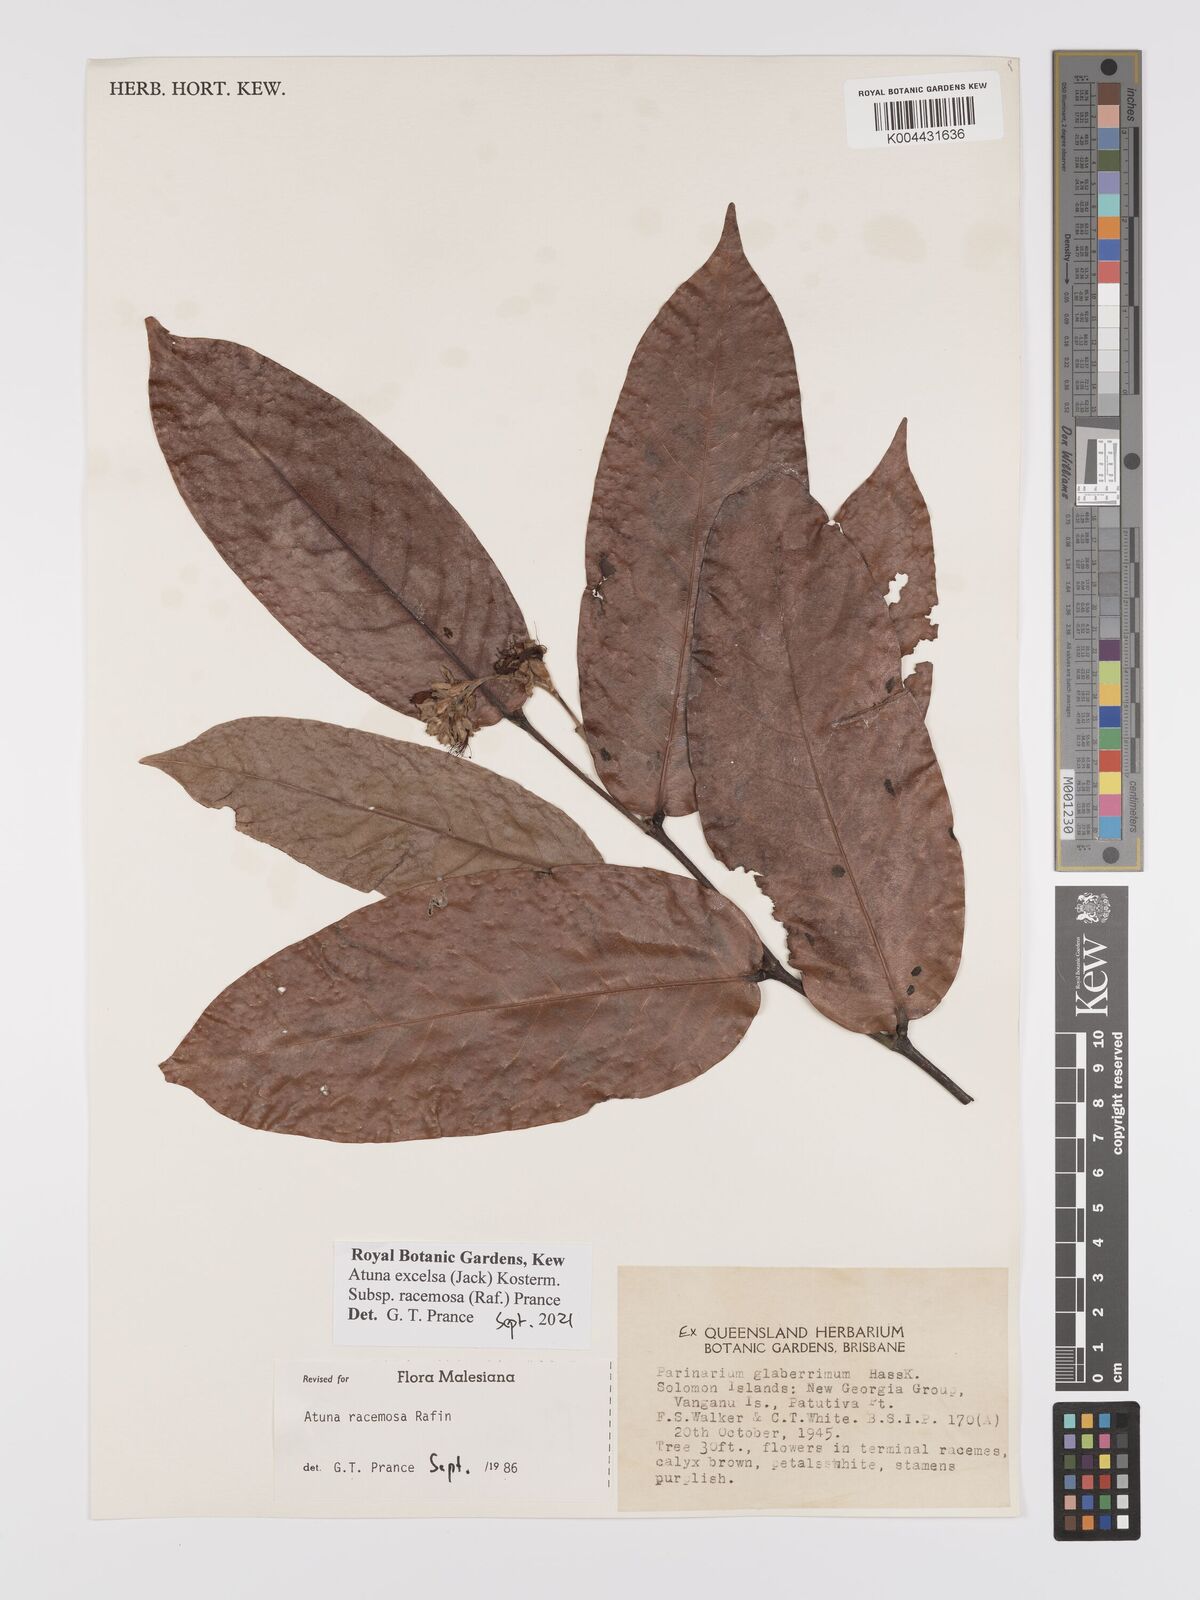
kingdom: Plantae
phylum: Tracheophyta
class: Magnoliopsida
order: Malpighiales
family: Chrysobalanaceae
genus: Atuna
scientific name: Atuna
